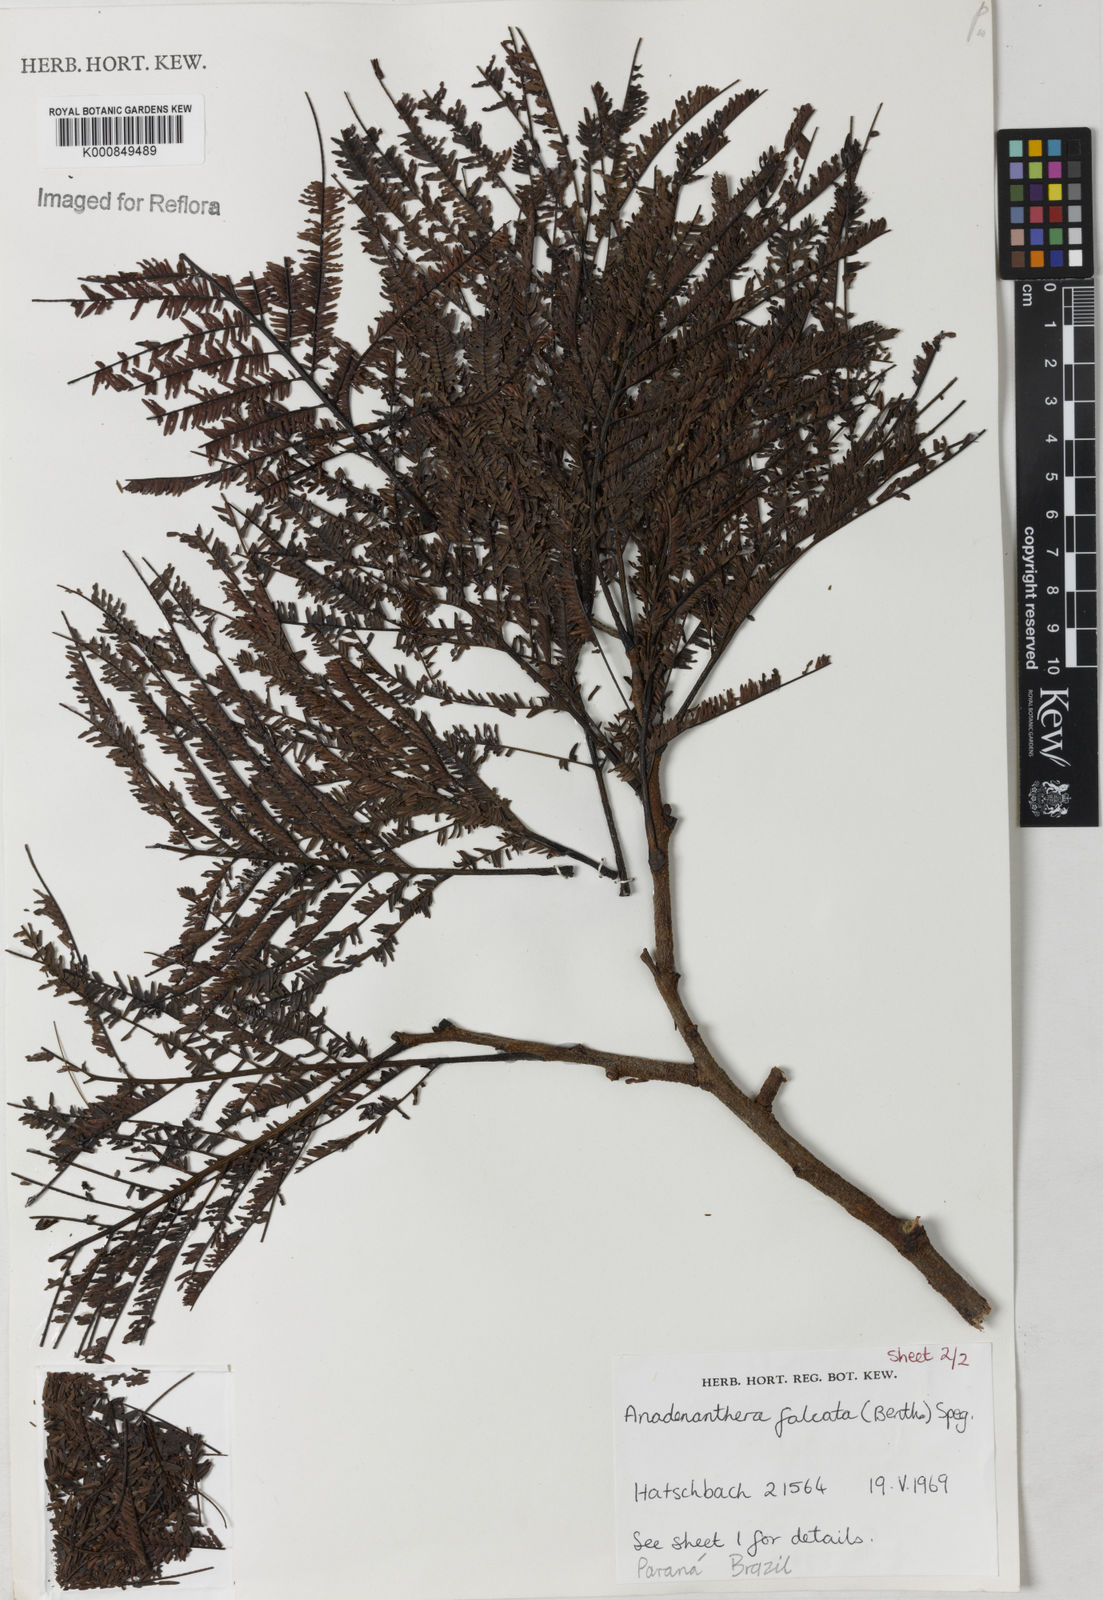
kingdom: Plantae
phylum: Tracheophyta
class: Magnoliopsida
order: Fabales
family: Fabaceae
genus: Anadenanthera
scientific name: Anadenanthera peregrina
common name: Cohoba
